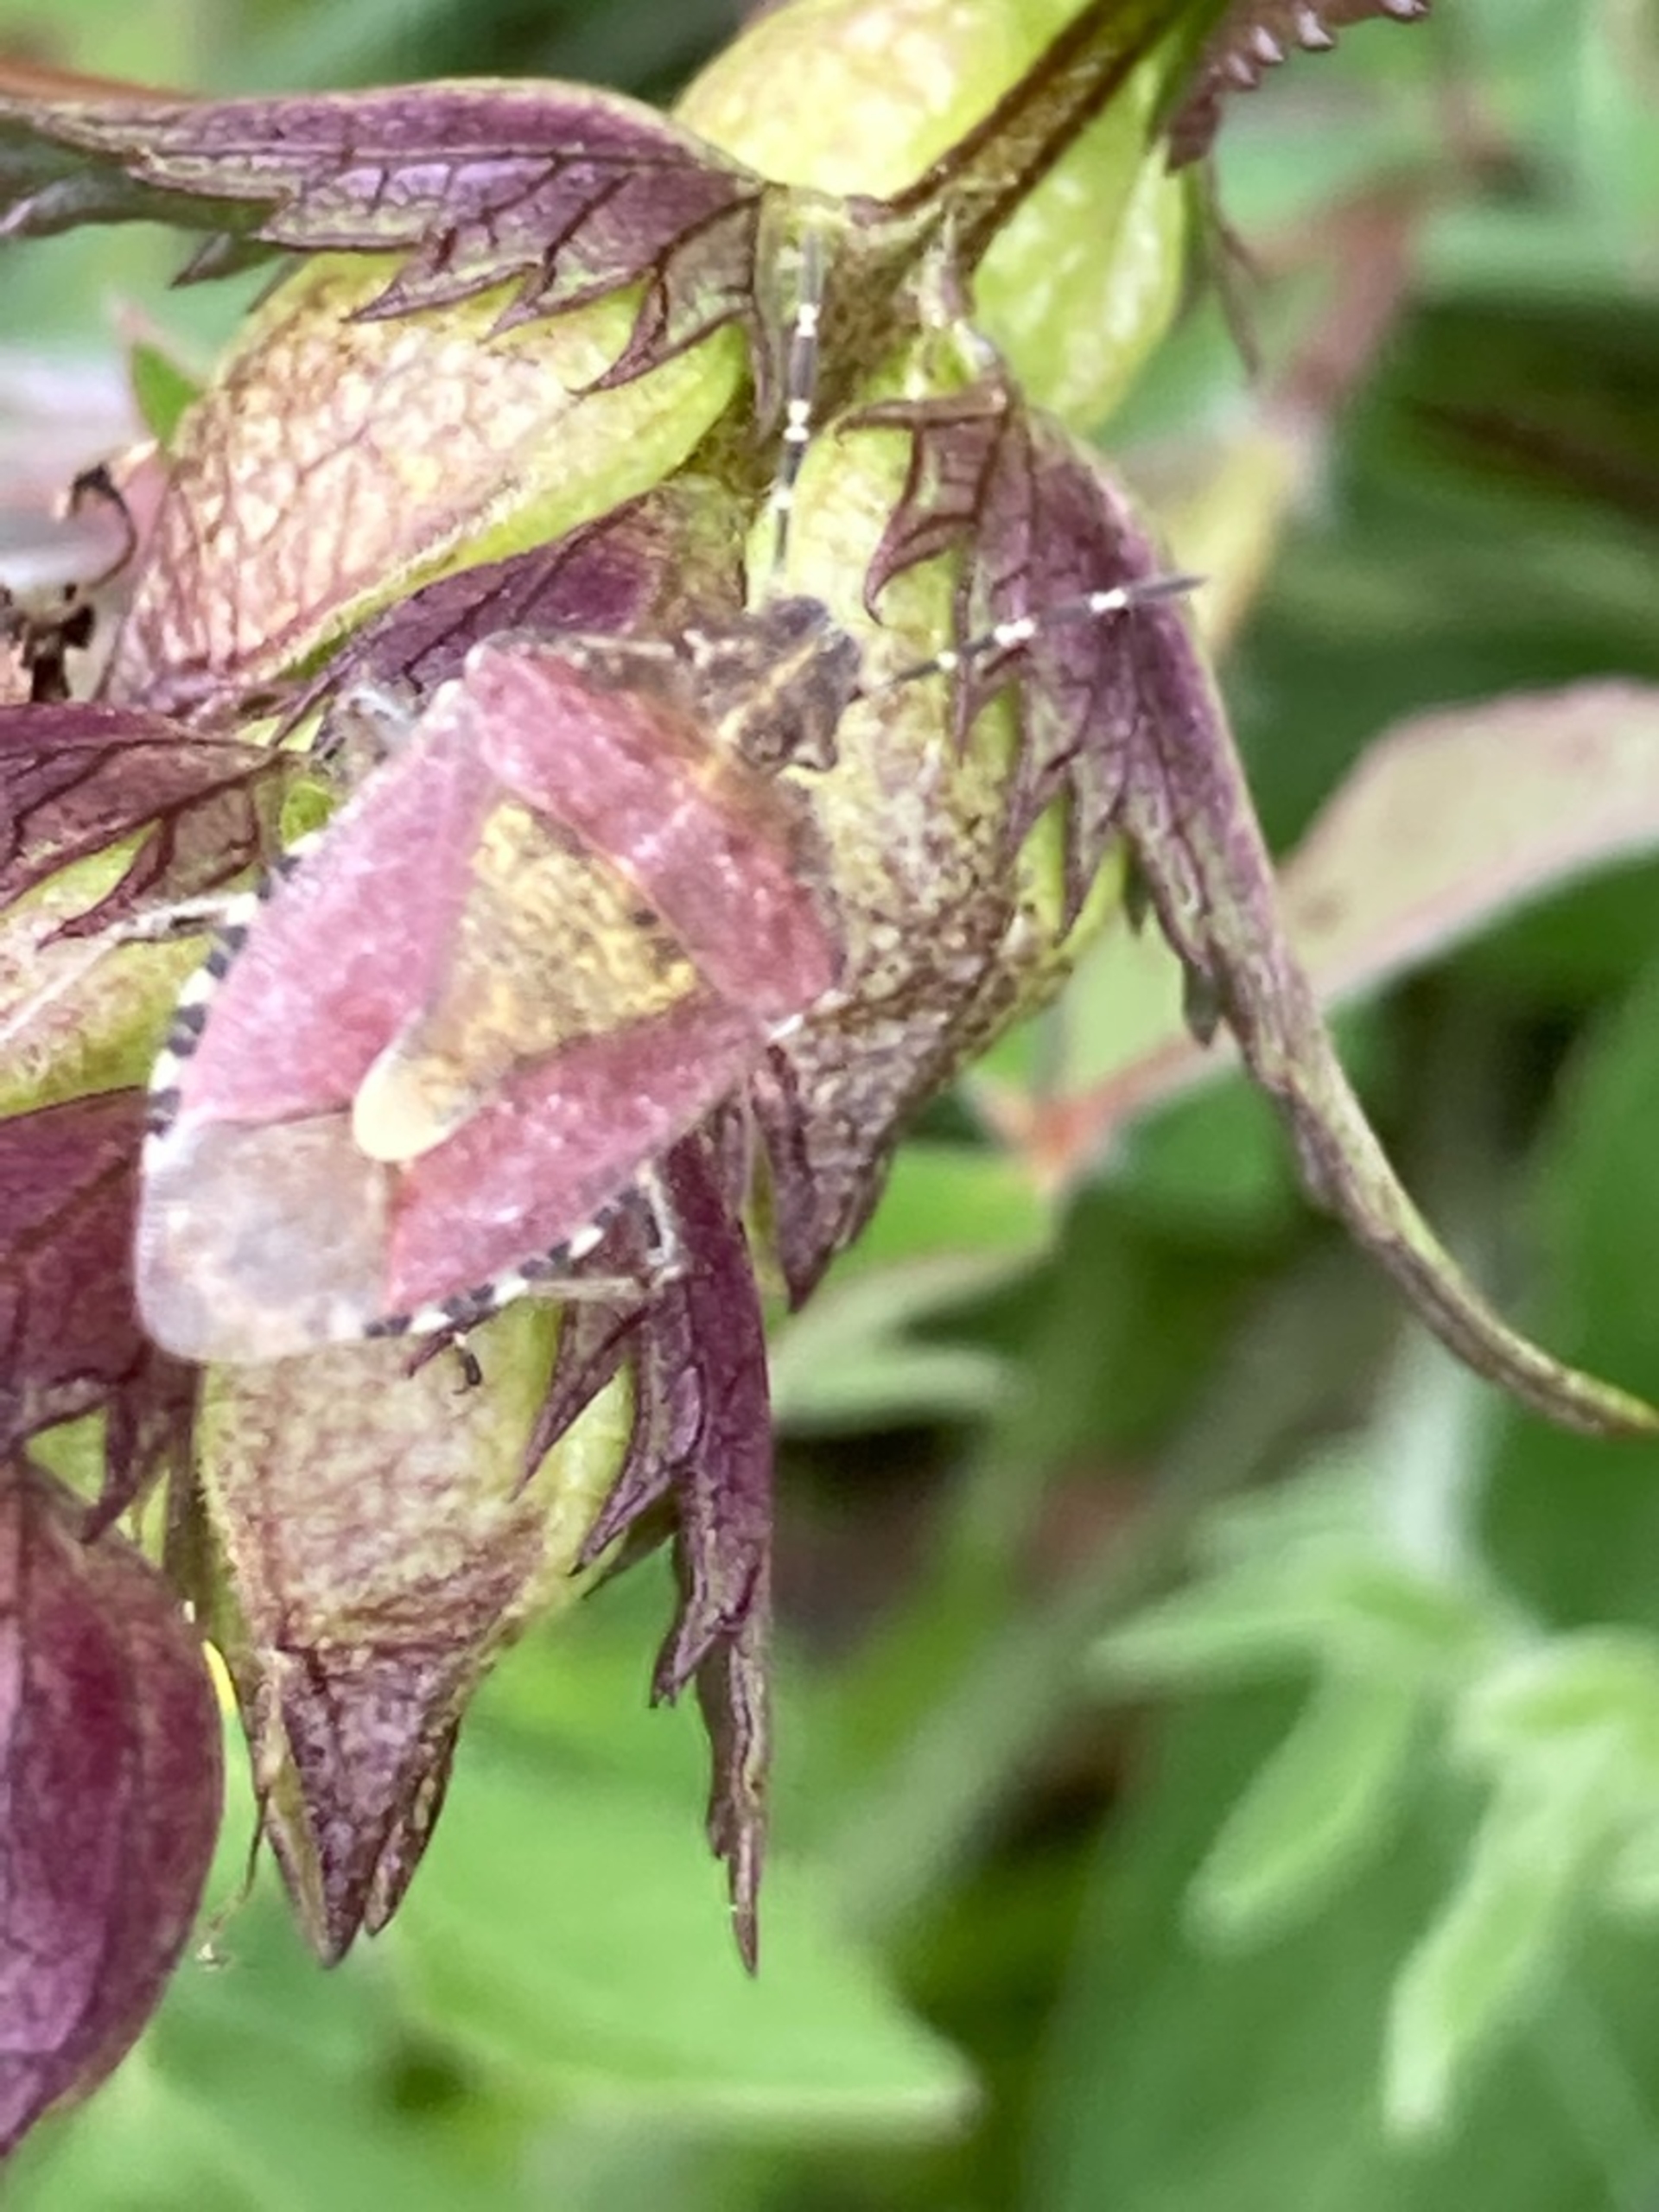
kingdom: Animalia
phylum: Arthropoda
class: Insecta
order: Hemiptera
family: Pentatomidae
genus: Dolycoris
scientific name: Dolycoris baccarum
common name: Almindelig bærtæge
